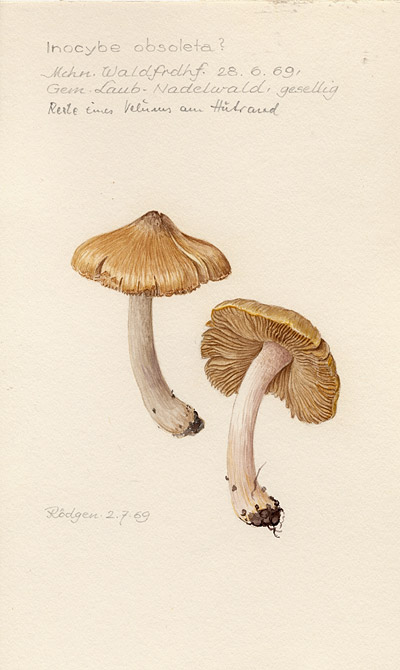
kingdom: Fungi
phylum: Basidiomycota
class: Agaricomycetes
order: Agaricales
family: Inocybaceae
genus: Pseudosperma
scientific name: Pseudosperma rimosum
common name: Split fibrecap
